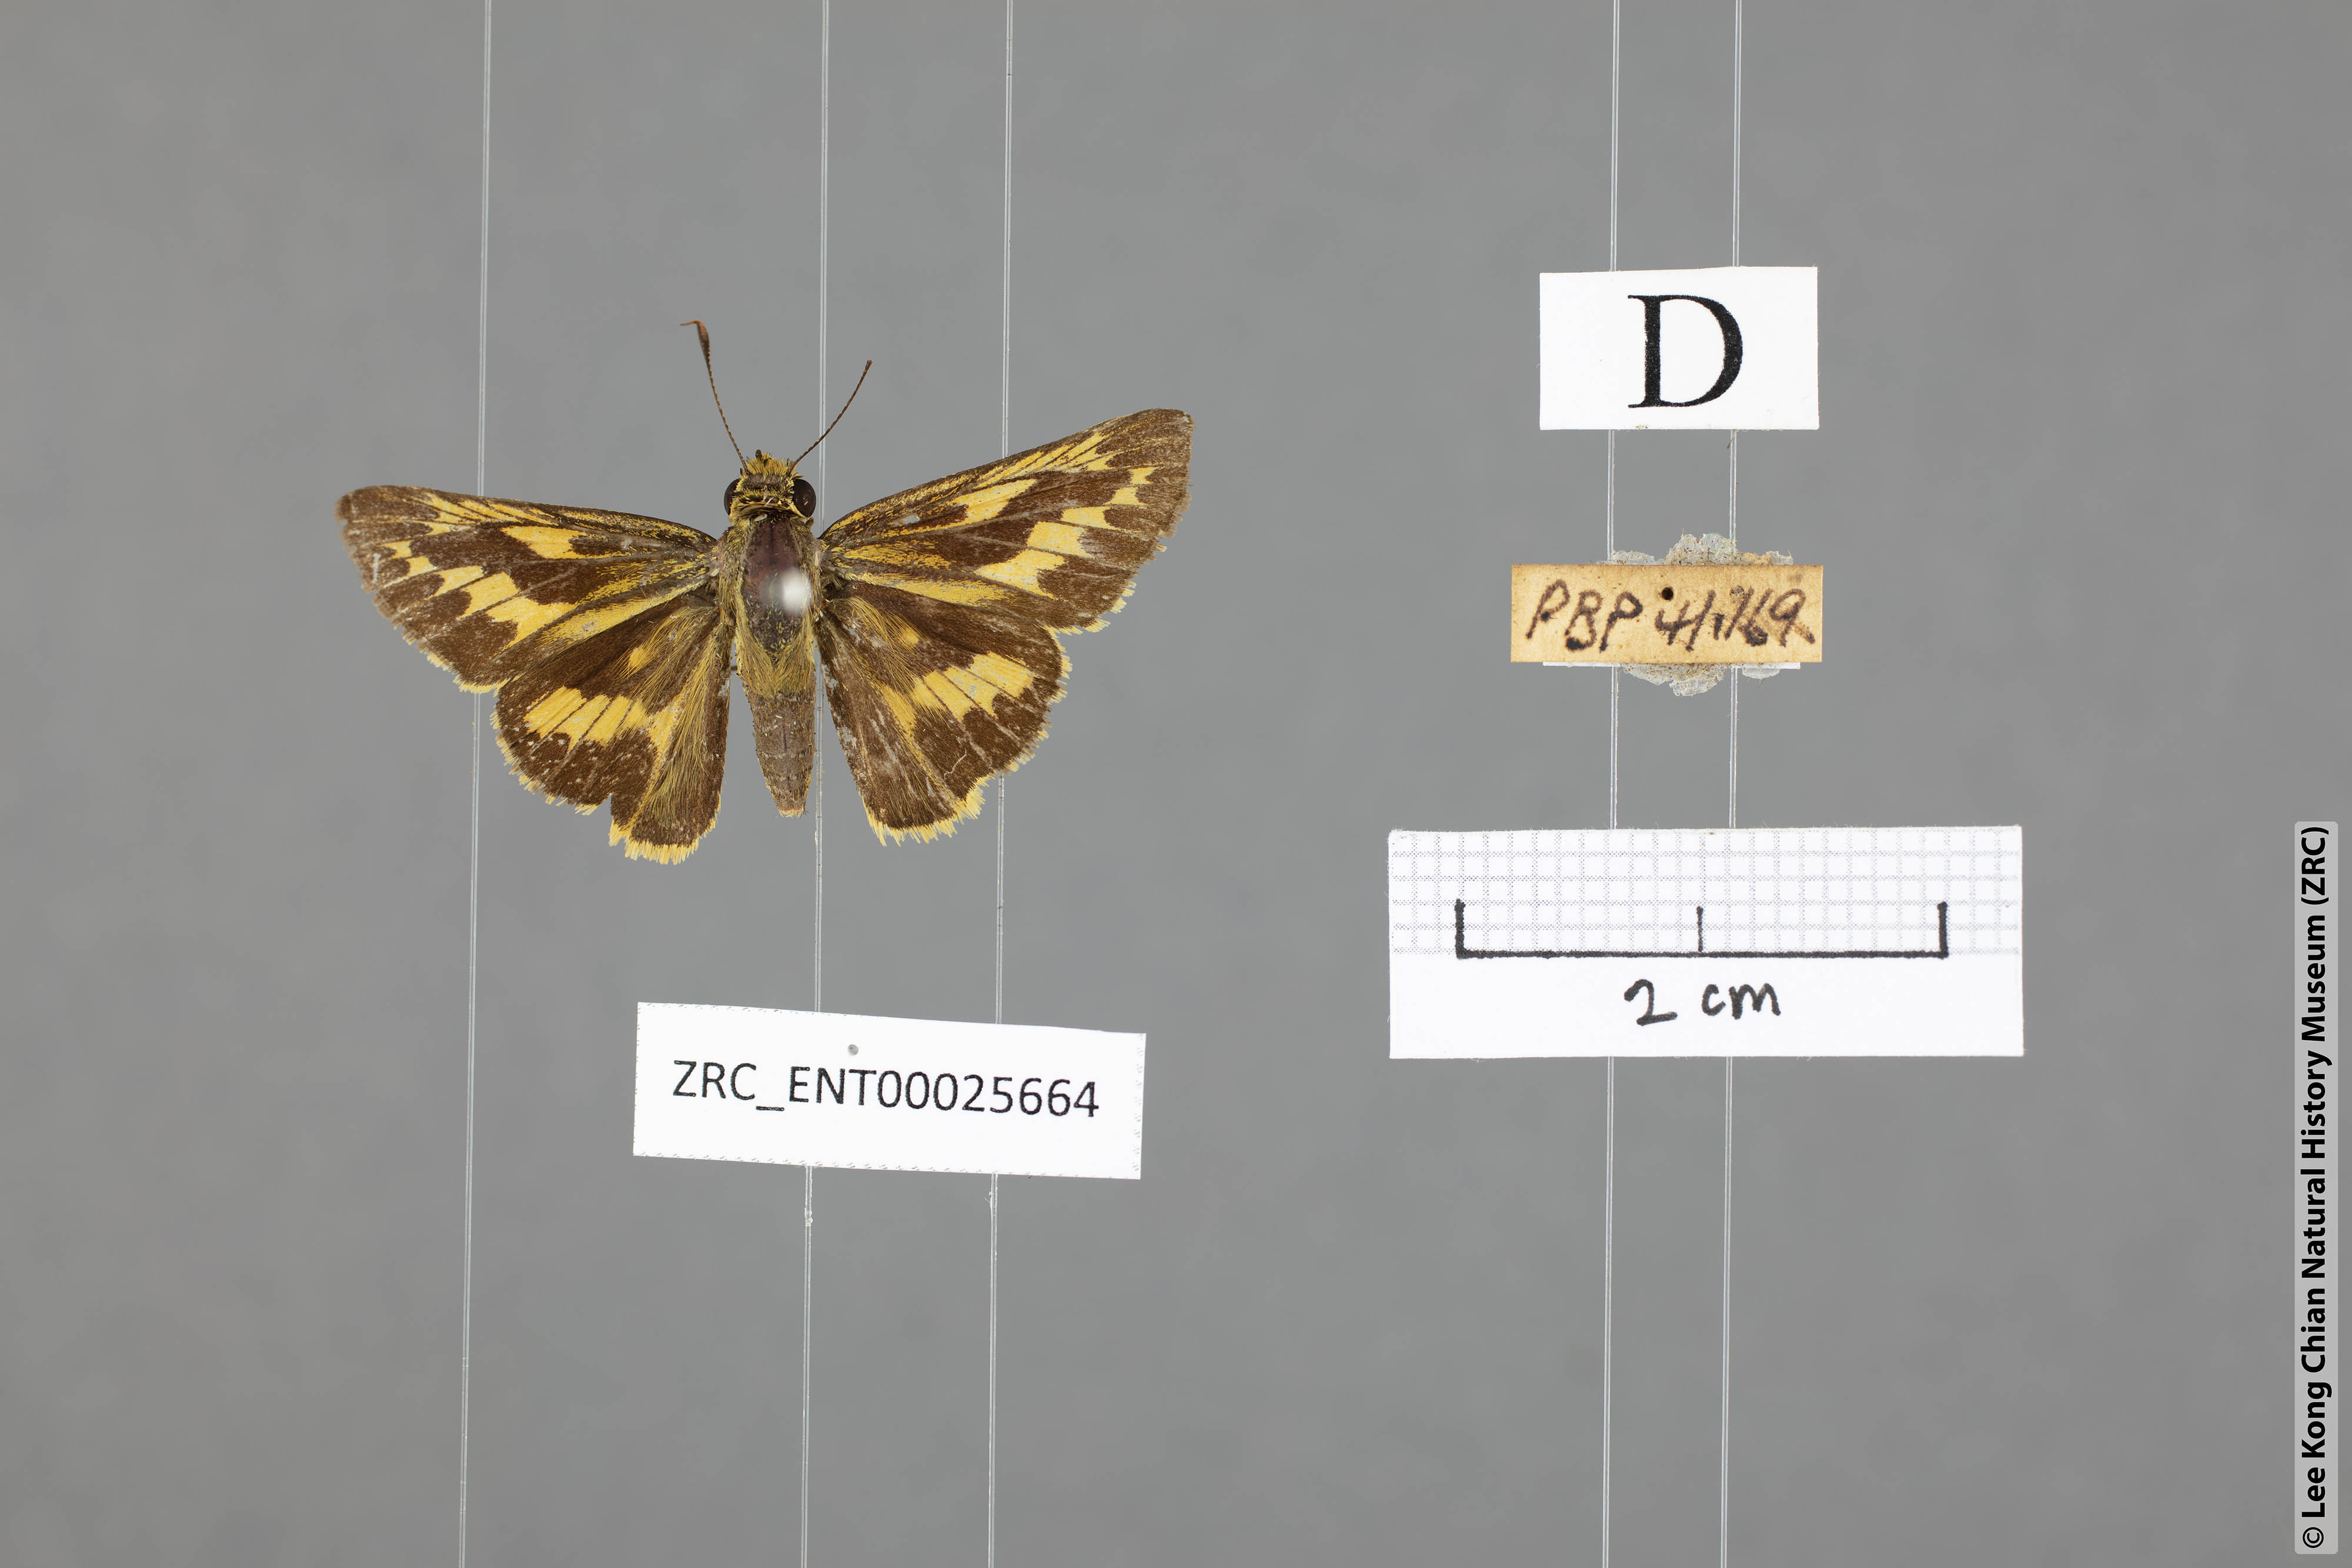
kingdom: Animalia
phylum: Arthropoda
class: Insecta
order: Lepidoptera
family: Hesperiidae
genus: Telicota
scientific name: Telicota colon
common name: Pale palm dart
